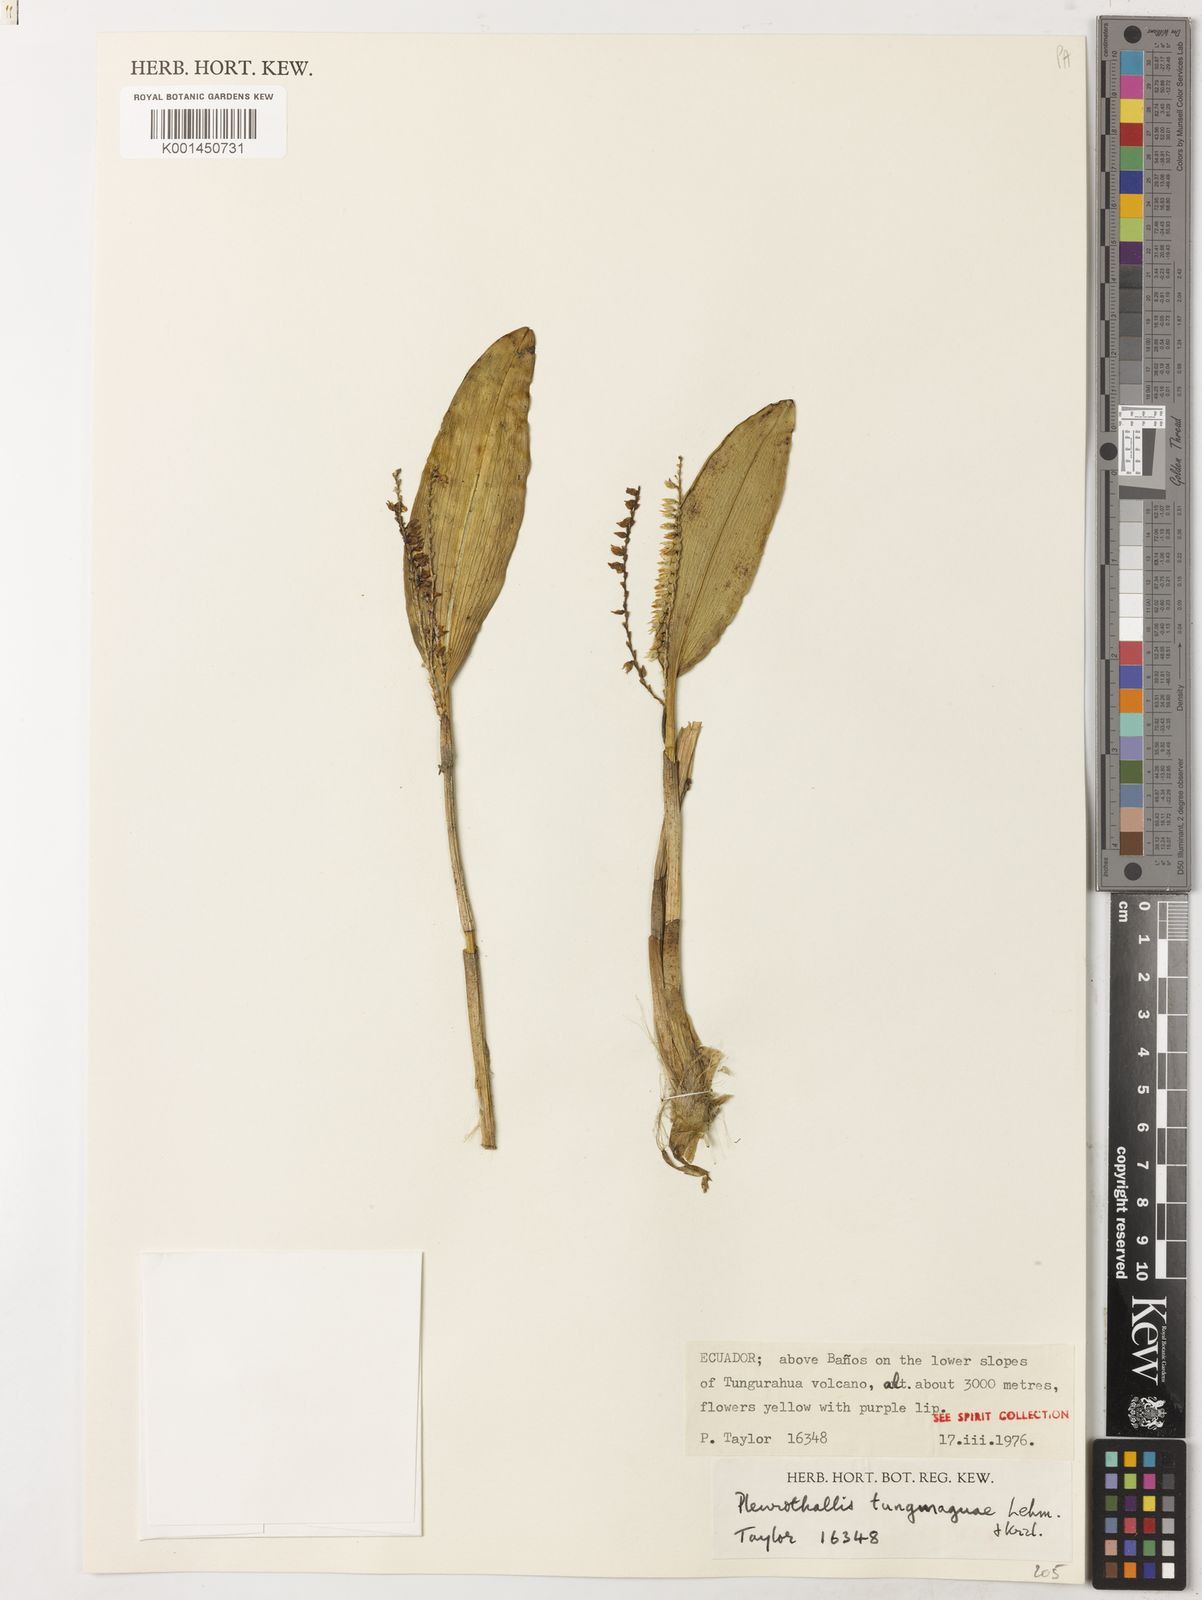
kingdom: Plantae
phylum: Tracheophyta
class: Liliopsida
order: Asparagales
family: Orchidaceae
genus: Stelis
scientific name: Stelis tunguraguae
